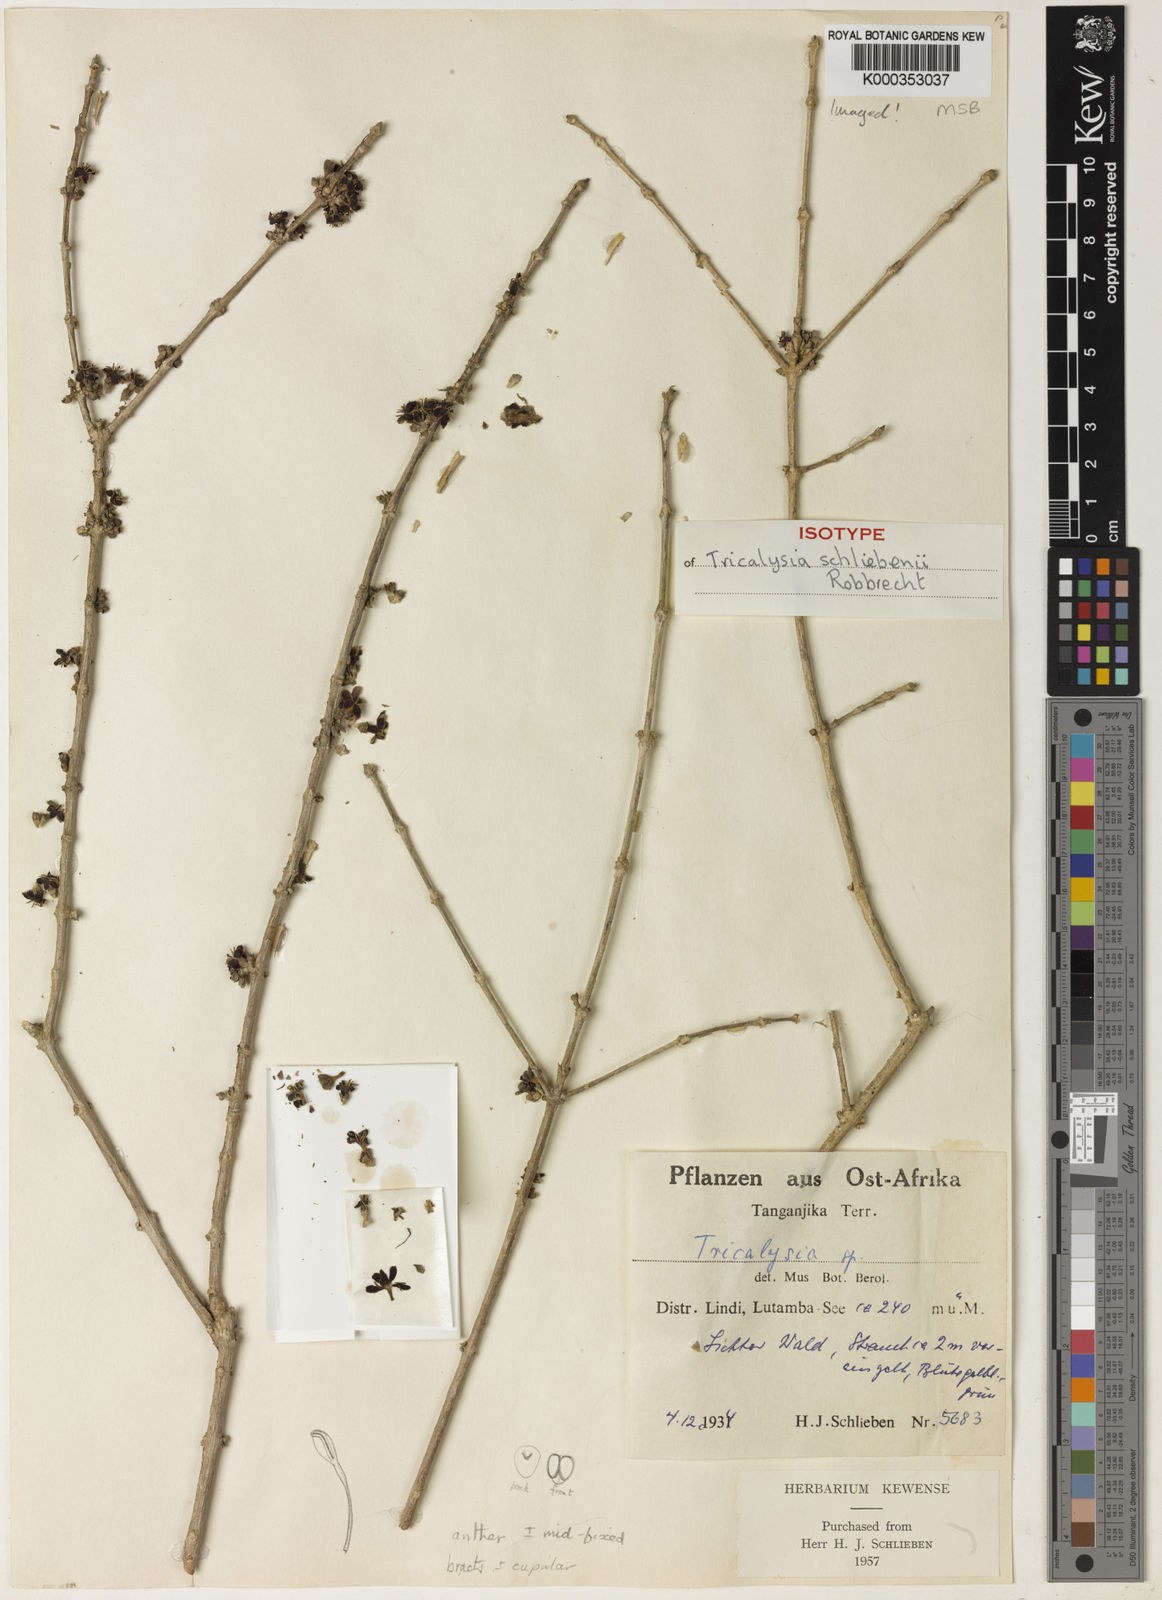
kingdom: Plantae
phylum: Tracheophyta
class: Magnoliopsida
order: Gentianales
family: Rubiaceae
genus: Tricalysia
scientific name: Tricalysia schliebenii
